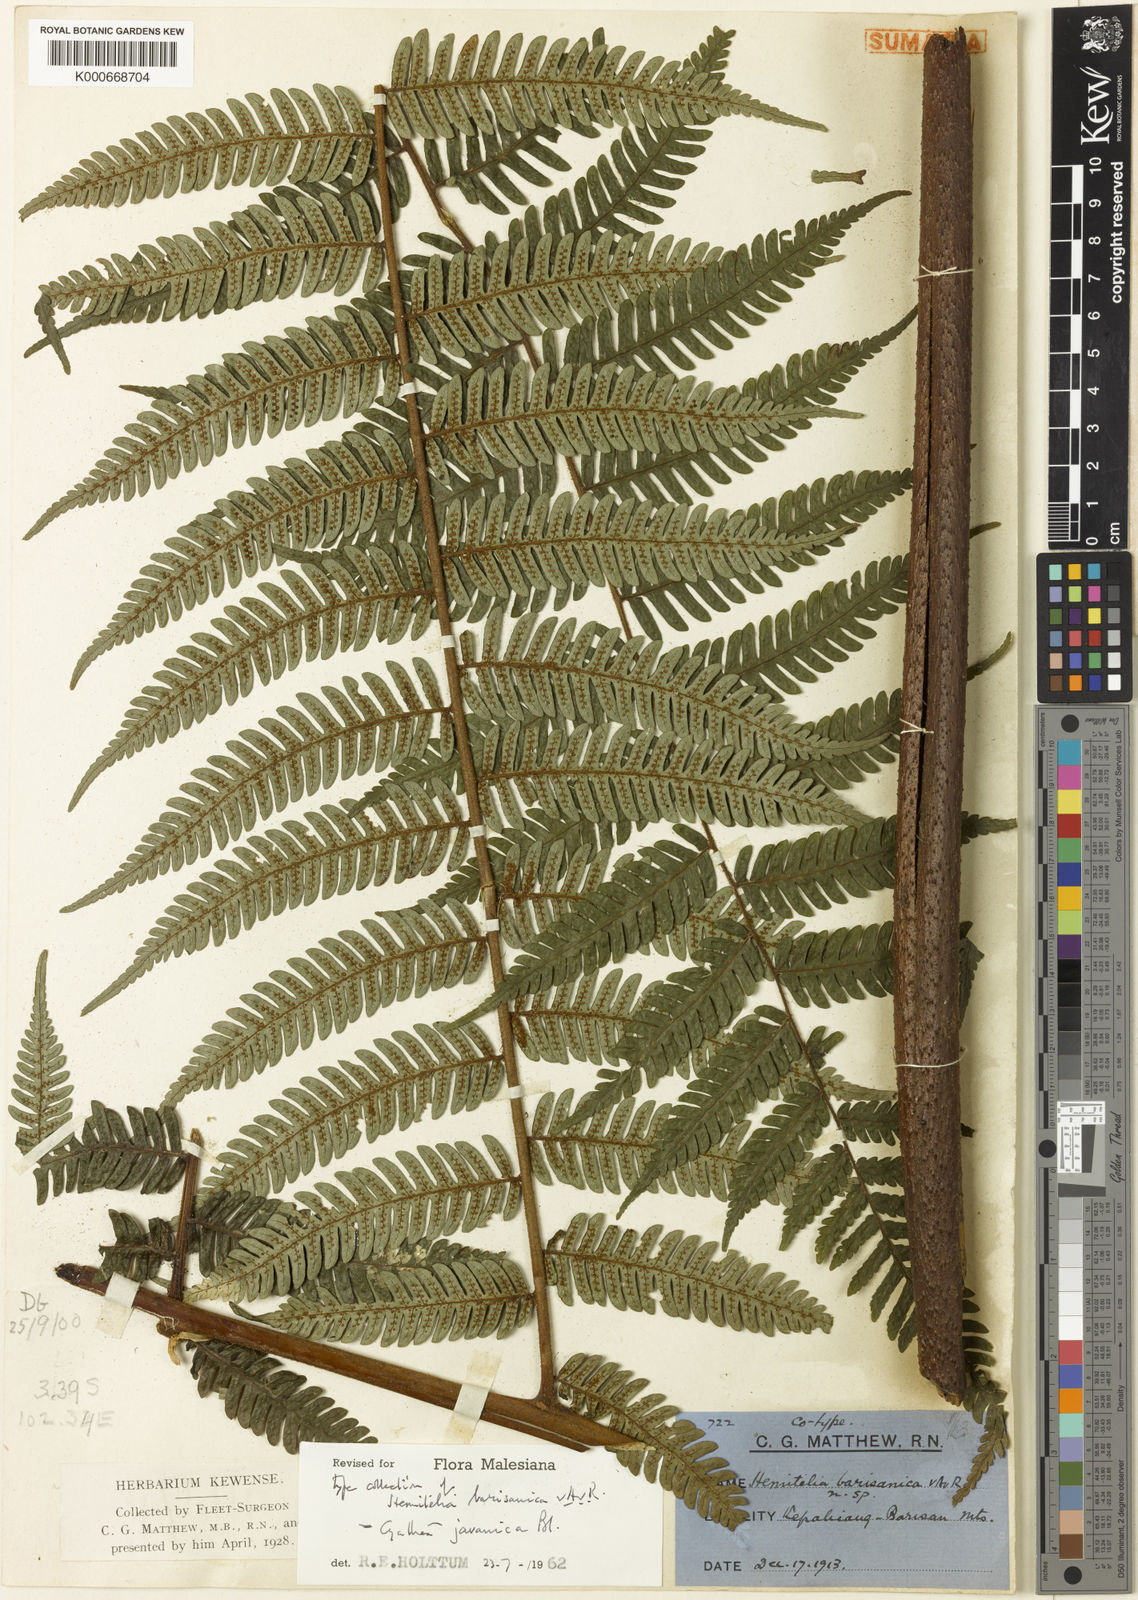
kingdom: Plantae
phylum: Tracheophyta
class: Polypodiopsida
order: Cyatheales
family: Cyatheaceae
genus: Alsophila
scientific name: Alsophila javanica
